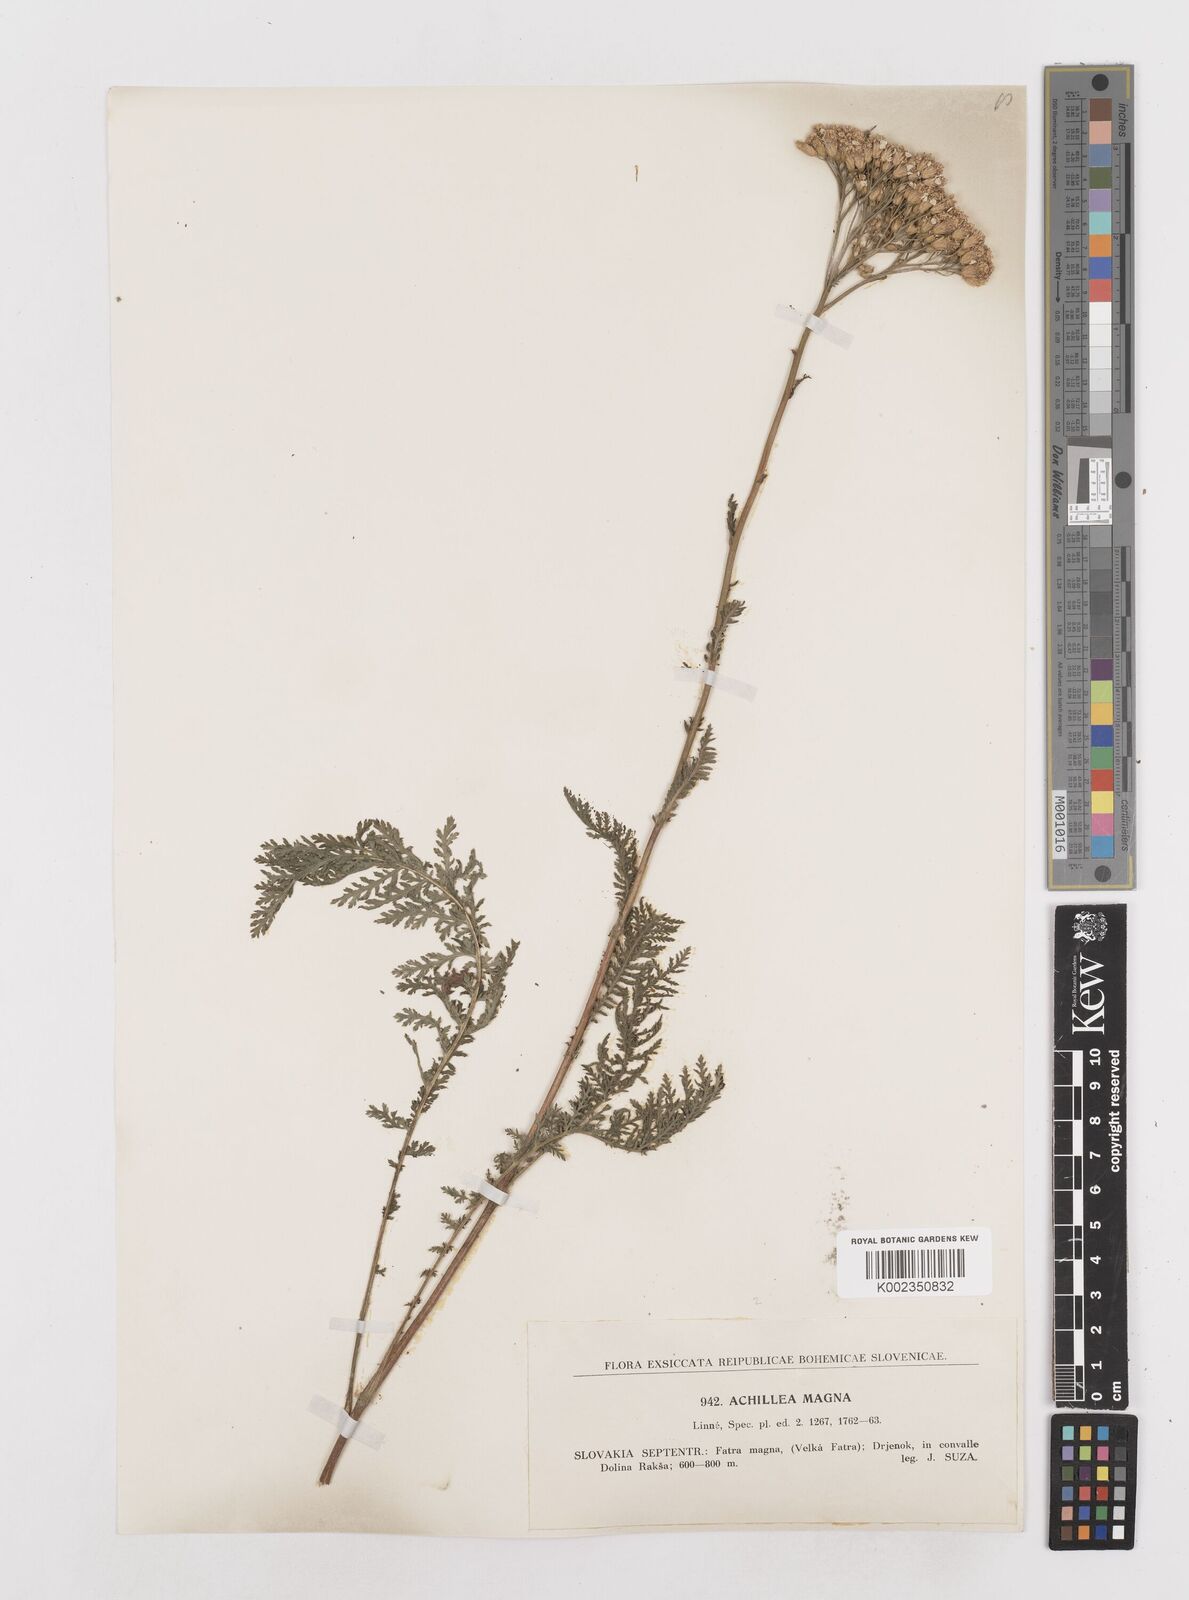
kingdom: Plantae
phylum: Tracheophyta
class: Magnoliopsida
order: Asterales
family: Asteraceae
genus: Achillea
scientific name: Achillea distans
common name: Tall yarrow
